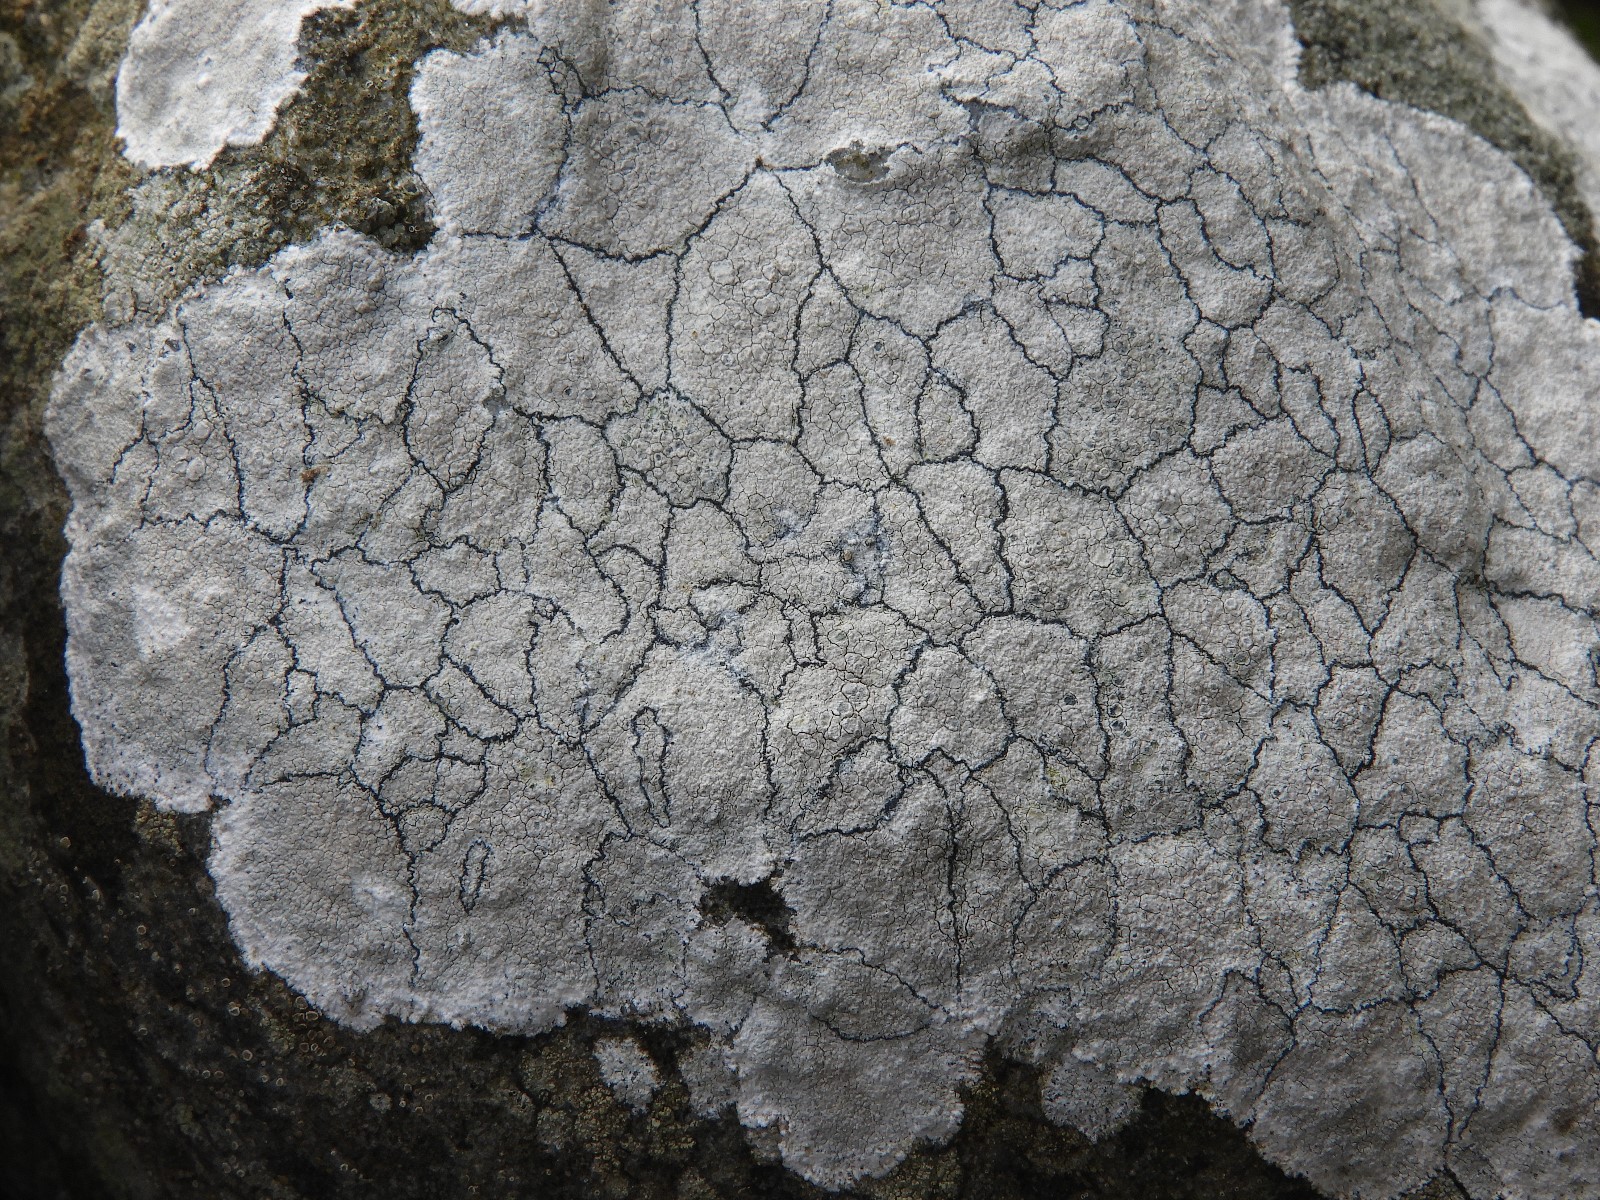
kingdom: Fungi
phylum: Ascomycota
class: Lecanoromycetes
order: Lecanorales
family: Lecanoraceae
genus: Glaucomaria
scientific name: Glaucomaria rupicola
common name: stengærde-kantskivelav
